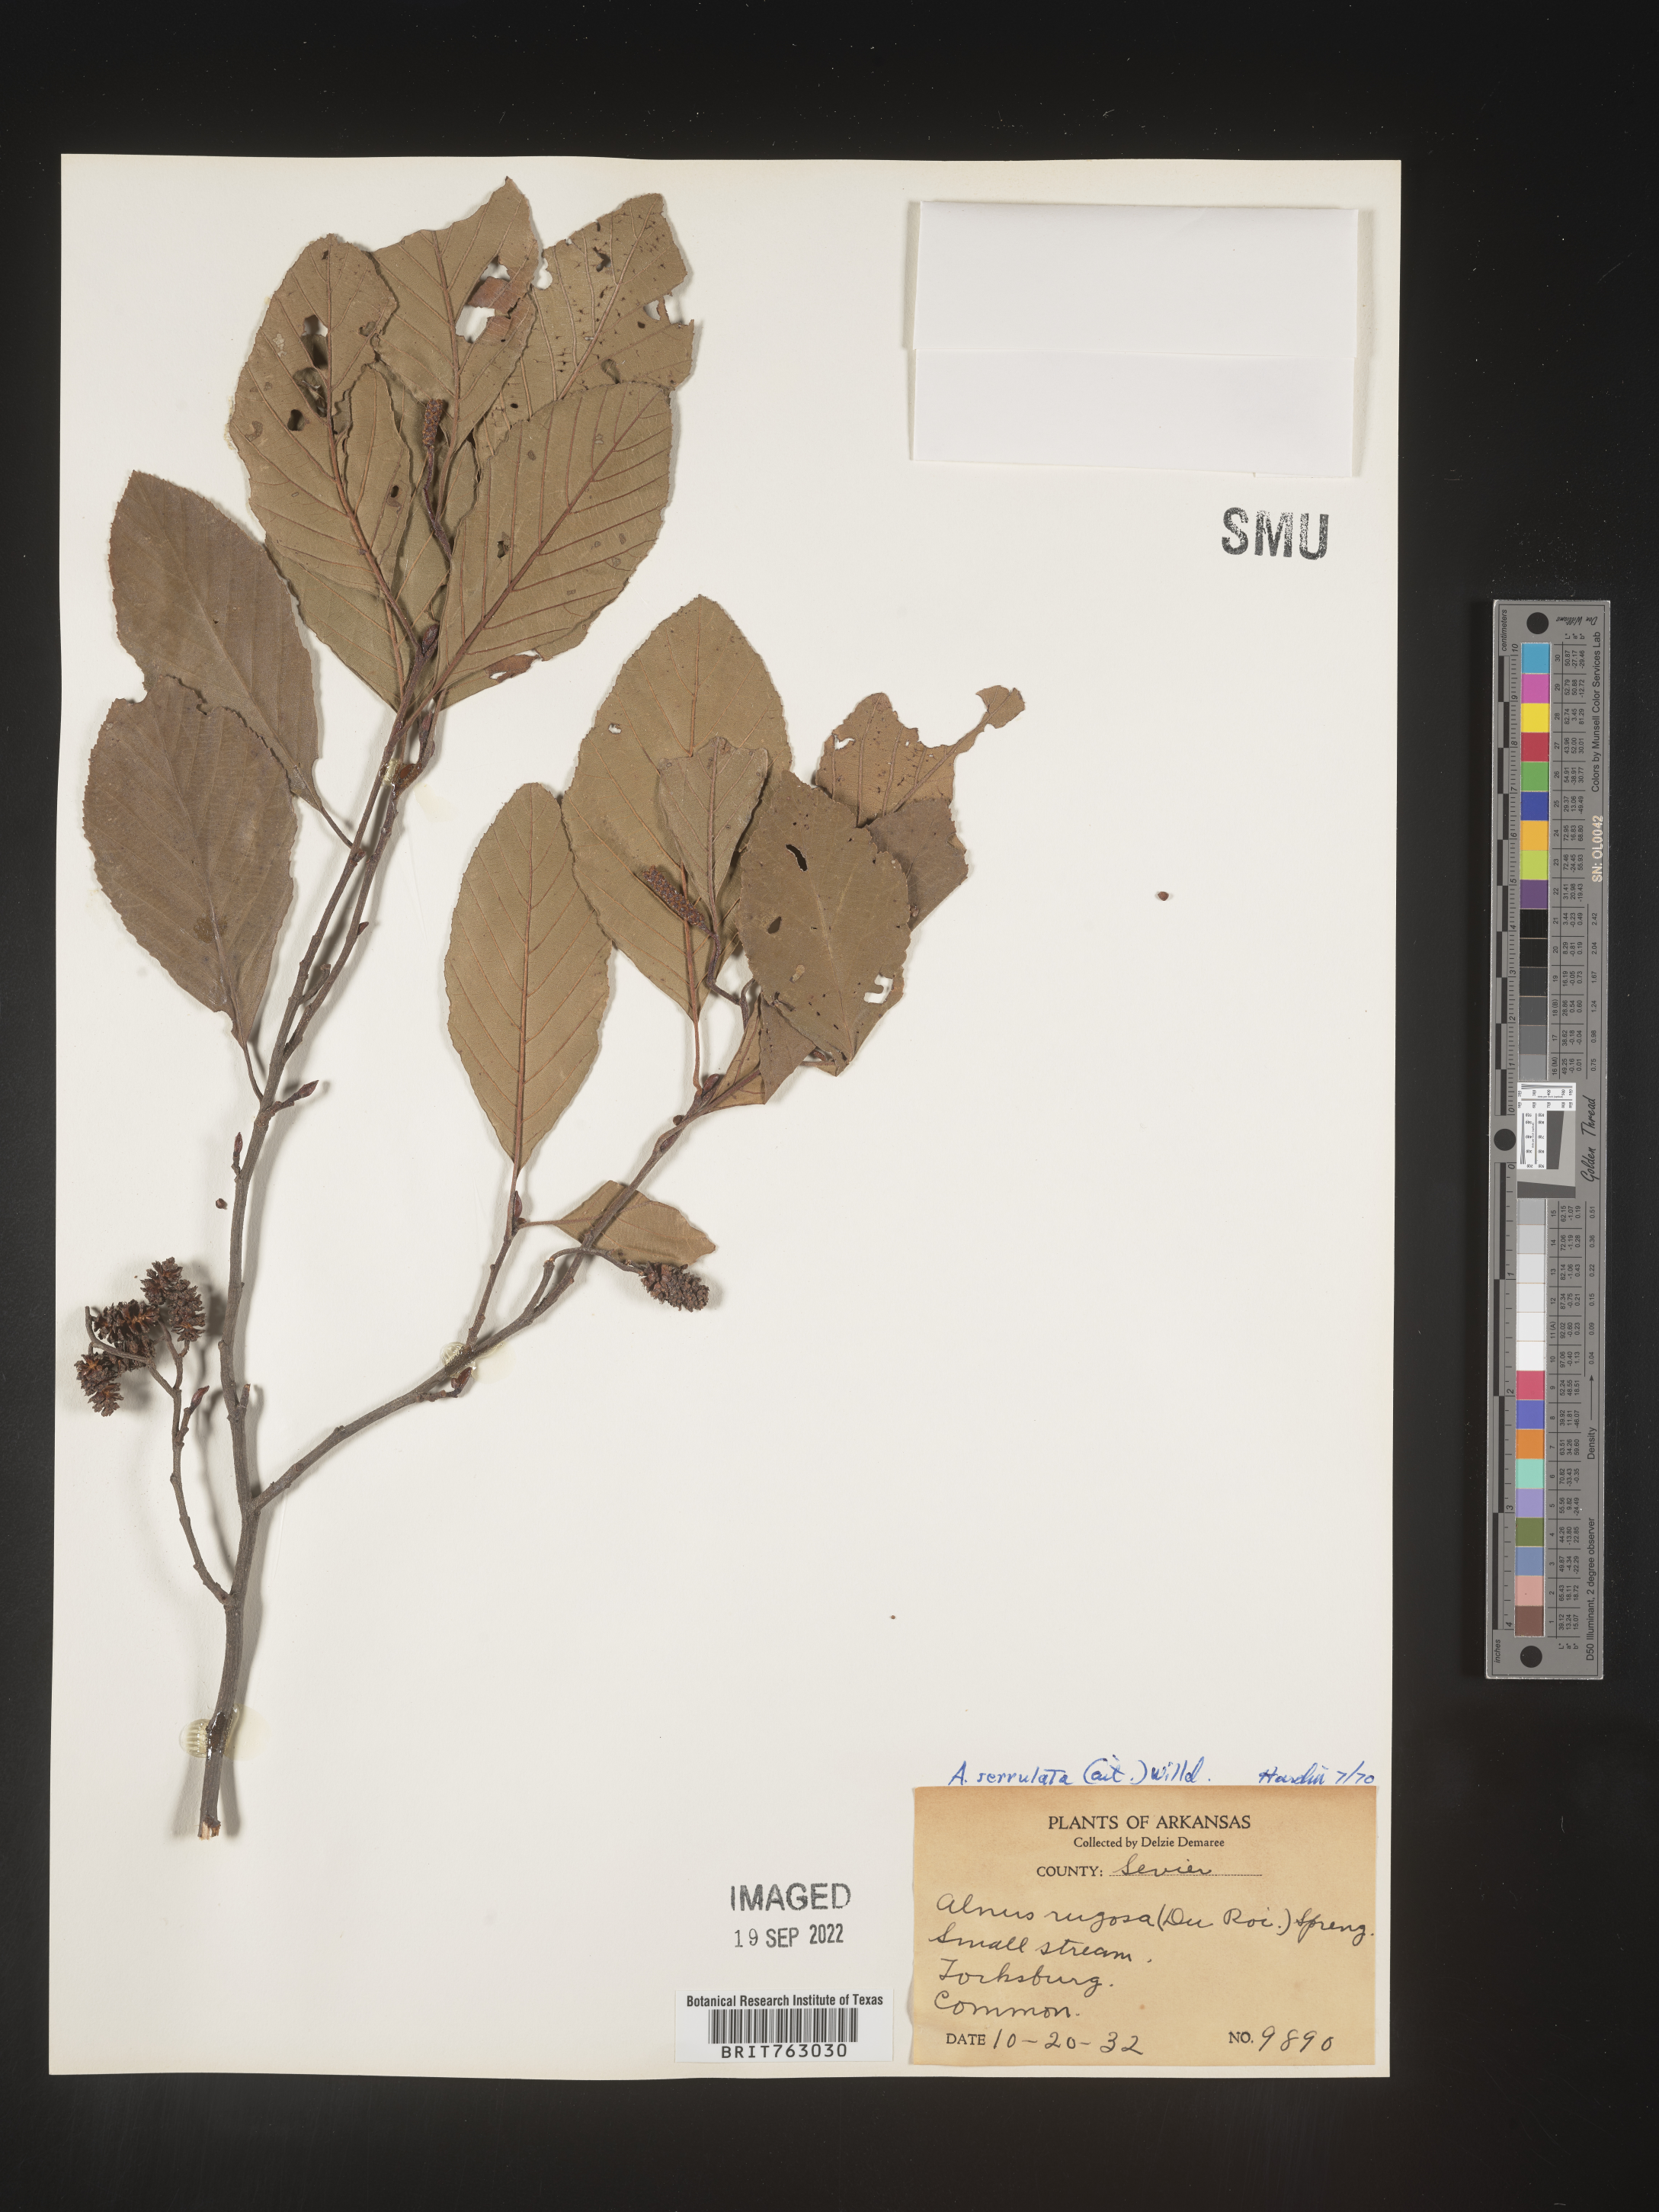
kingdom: Plantae
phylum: Tracheophyta
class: Magnoliopsida
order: Fagales
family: Betulaceae
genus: Alnus
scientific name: Alnus serrulata
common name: Hazel alder
